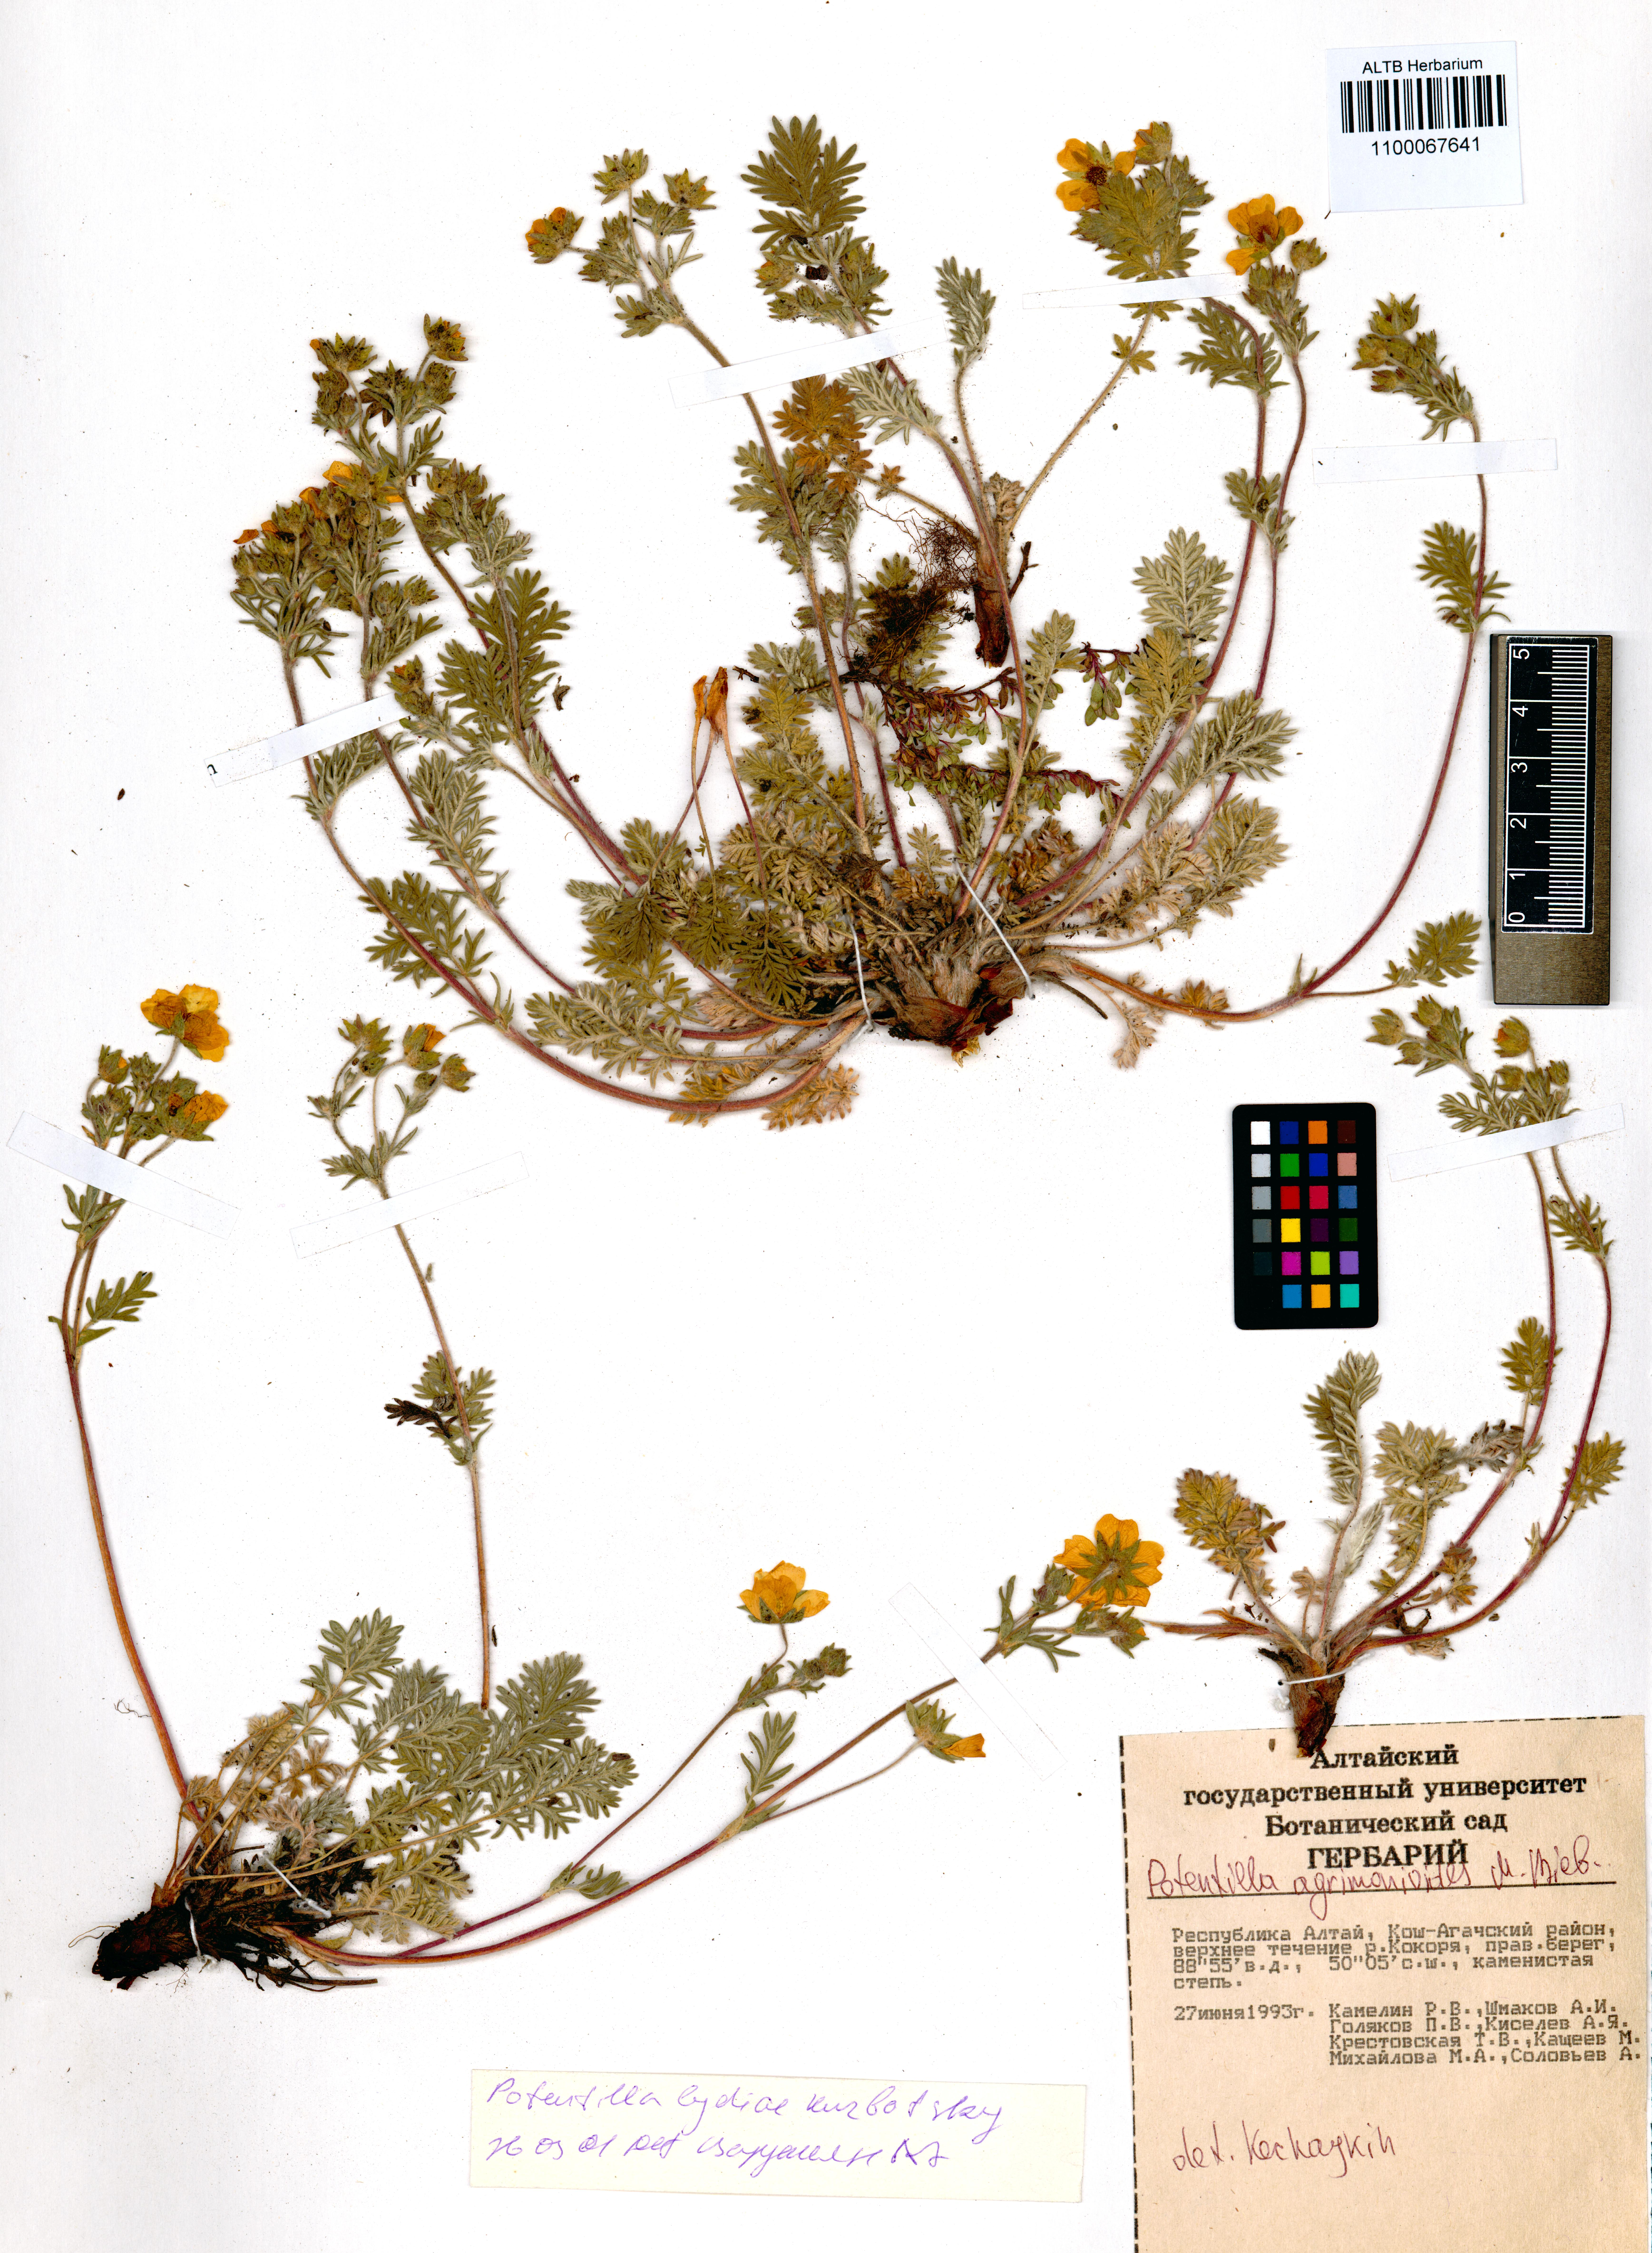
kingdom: Plantae
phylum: Tracheophyta
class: Magnoliopsida
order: Rosales
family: Rosaceae
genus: Potentilla
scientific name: Potentilla agrimonioides
